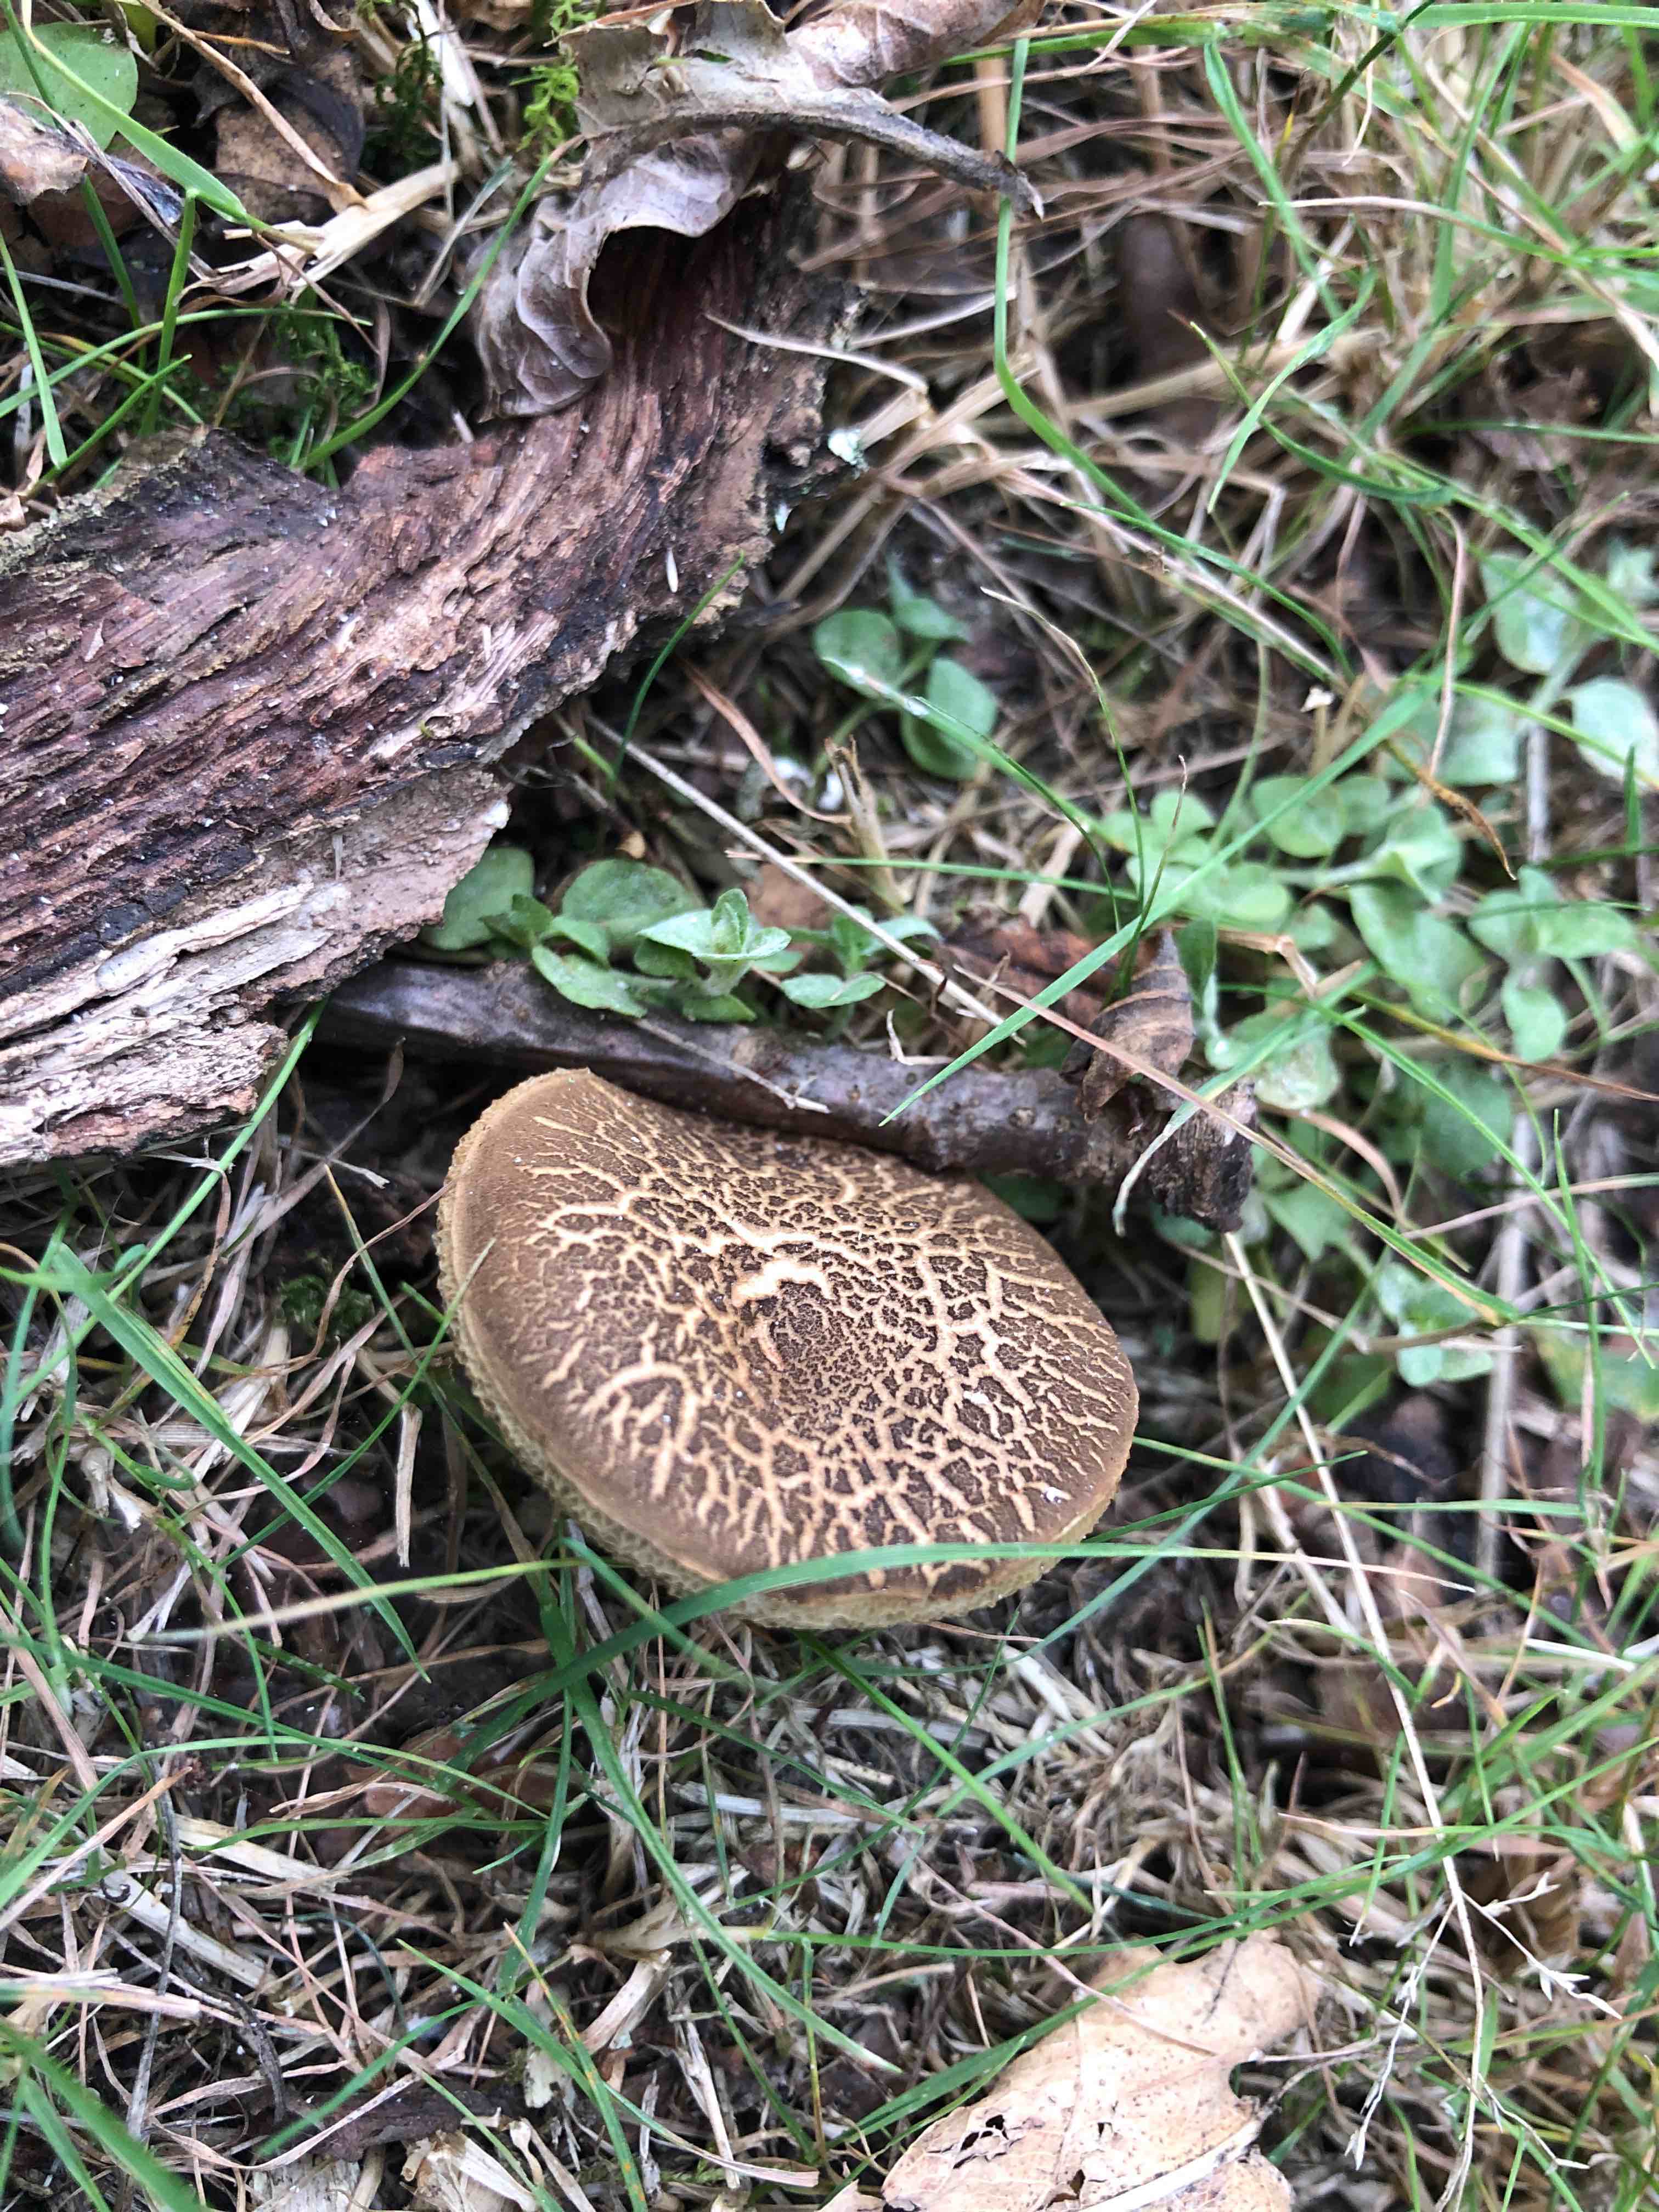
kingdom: Fungi
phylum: Basidiomycota
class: Agaricomycetes
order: Boletales
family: Boletaceae
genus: Xerocomellus
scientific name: Xerocomellus chrysenteron
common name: rødsprukken rørhat
